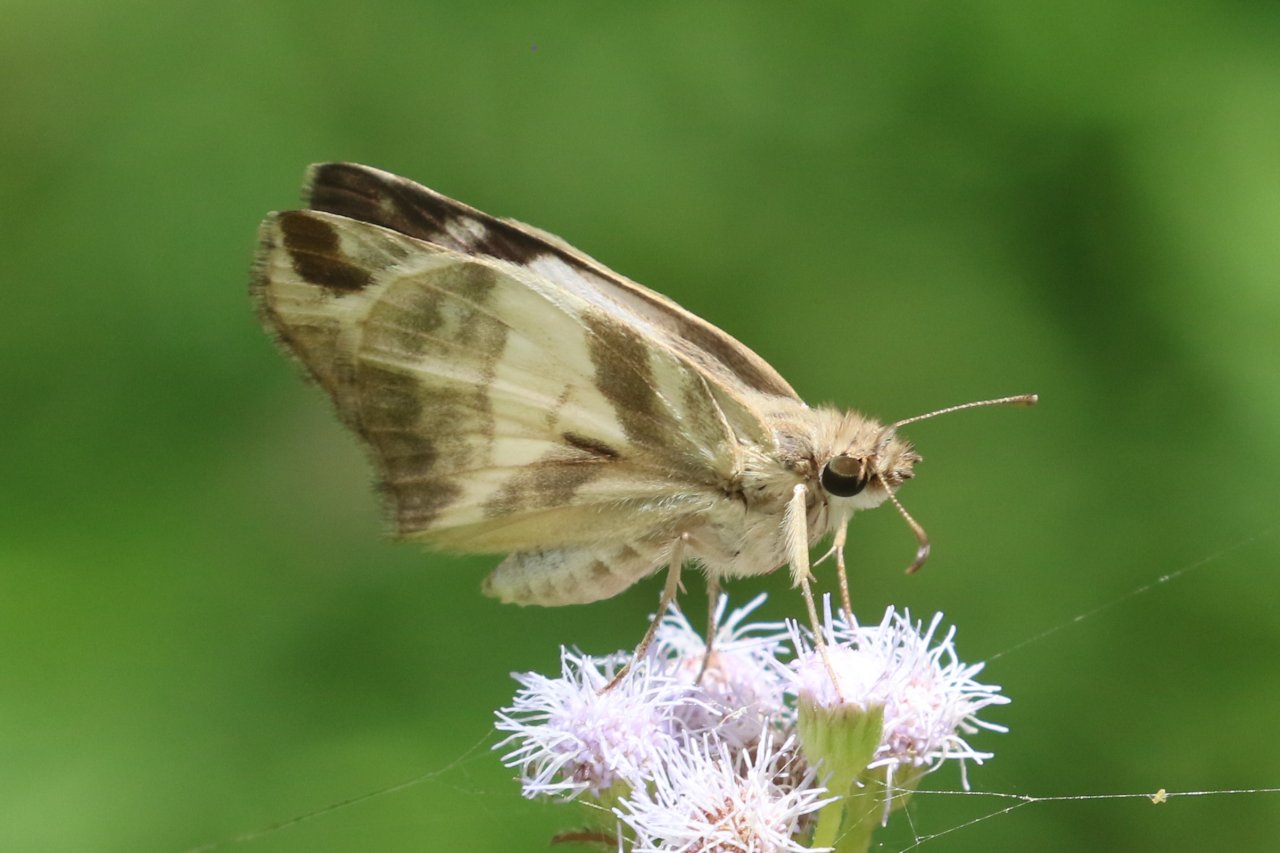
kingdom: Animalia
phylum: Arthropoda
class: Insecta
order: Lepidoptera
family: Hesperiidae
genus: Heliopetes
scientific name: Heliopetes laviana
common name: Laviana White-Skipper
